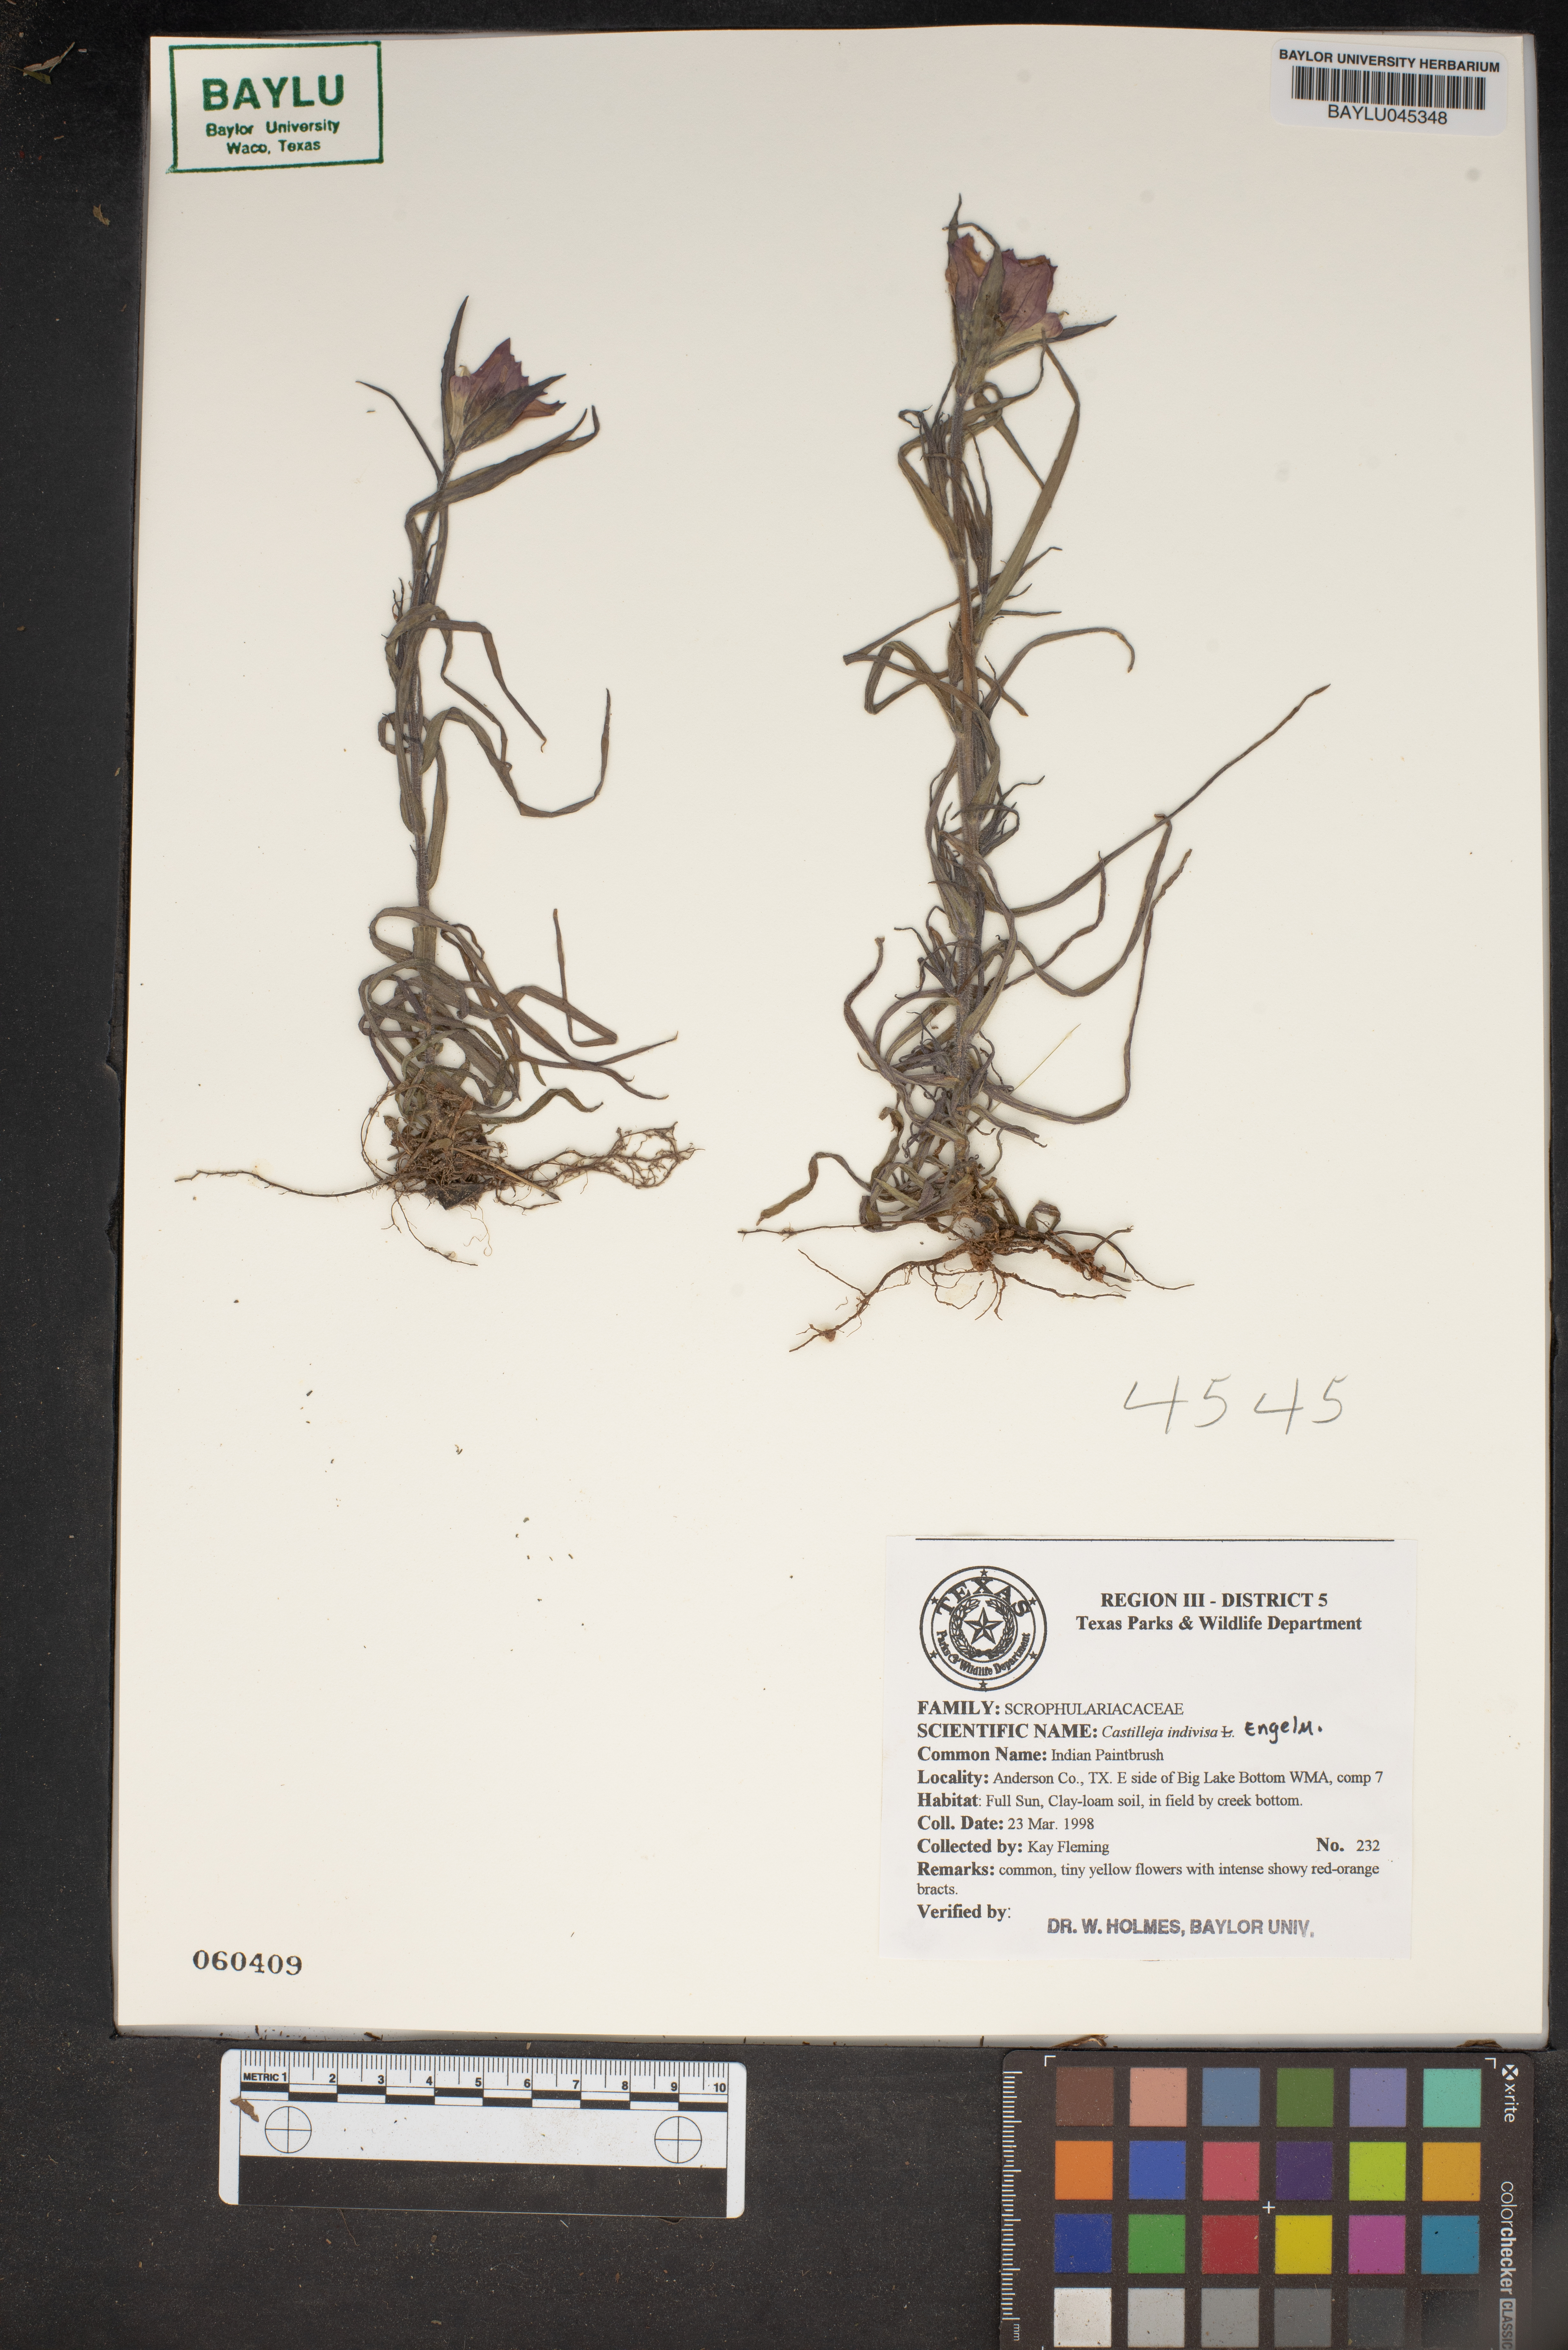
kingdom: Plantae
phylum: Tracheophyta
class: Magnoliopsida
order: Lamiales
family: Orobanchaceae
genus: Castilleja
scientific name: Castilleja indivisa
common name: Texas paintbrush
